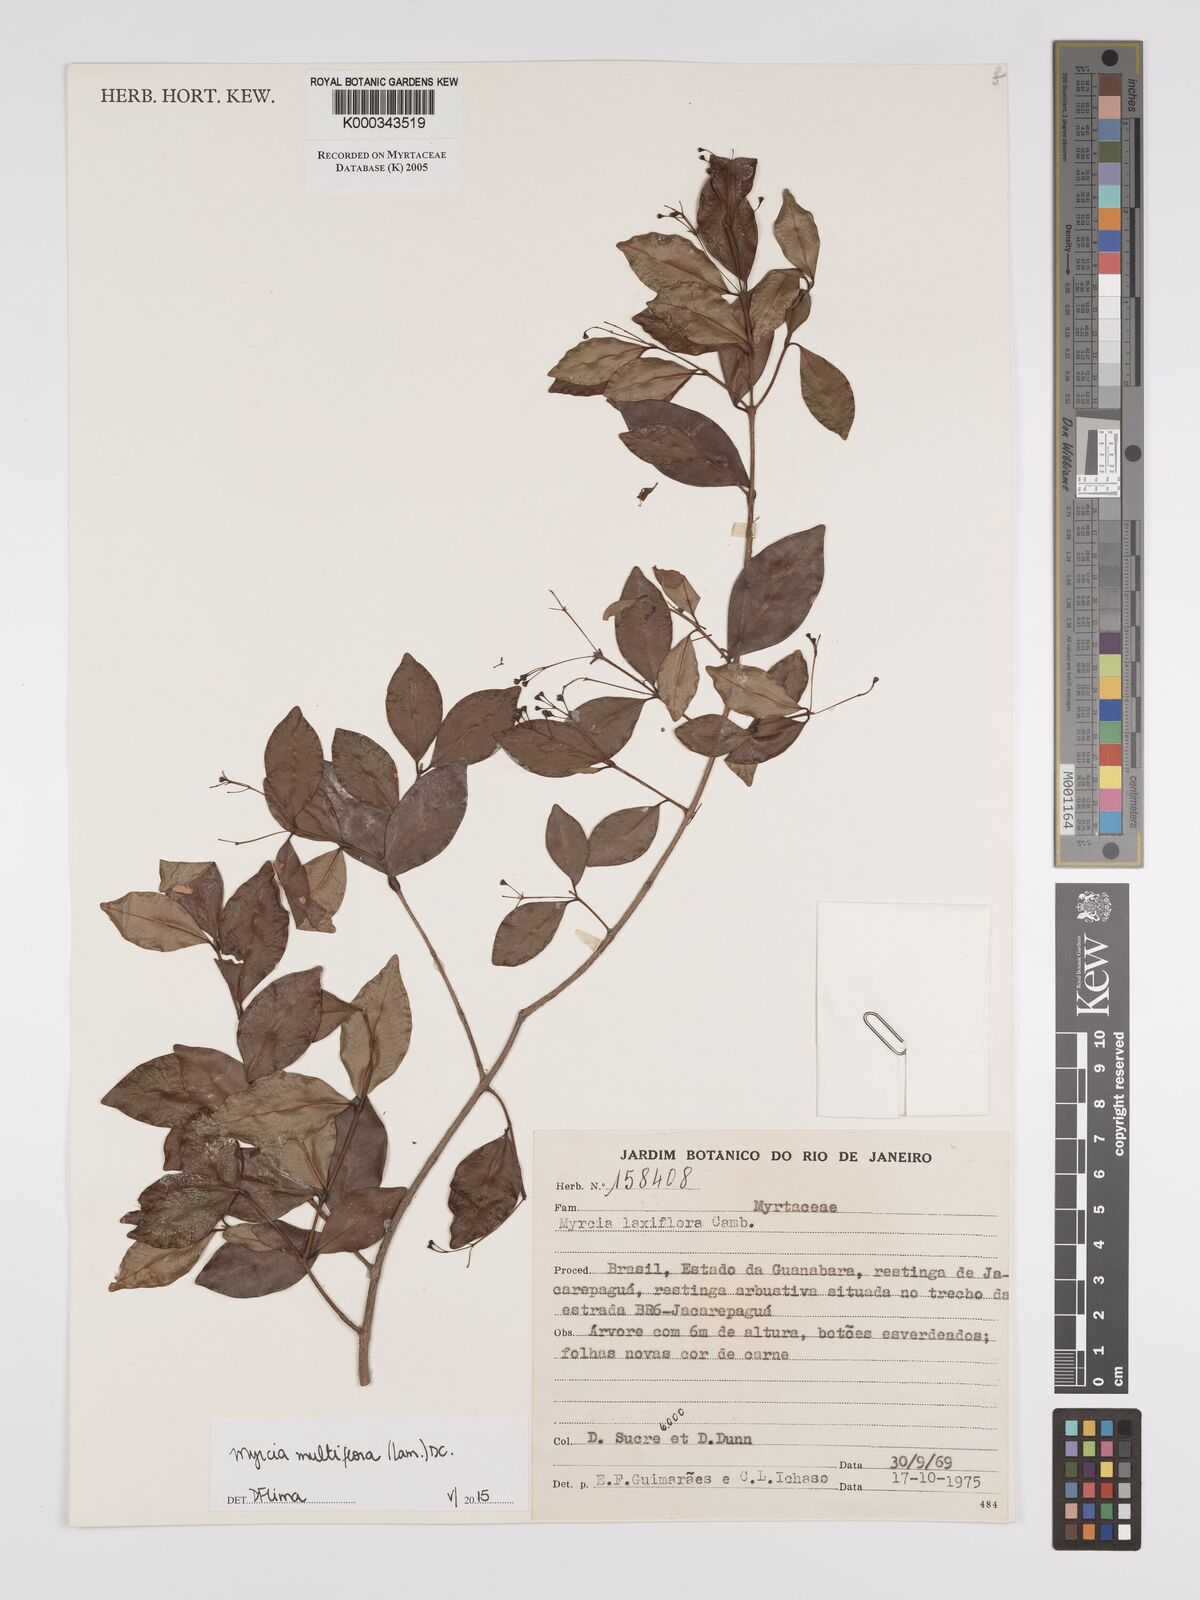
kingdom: Plantae
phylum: Tracheophyta
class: Magnoliopsida
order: Myrtales
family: Myrtaceae
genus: Myrcia
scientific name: Myrcia laxiflora
